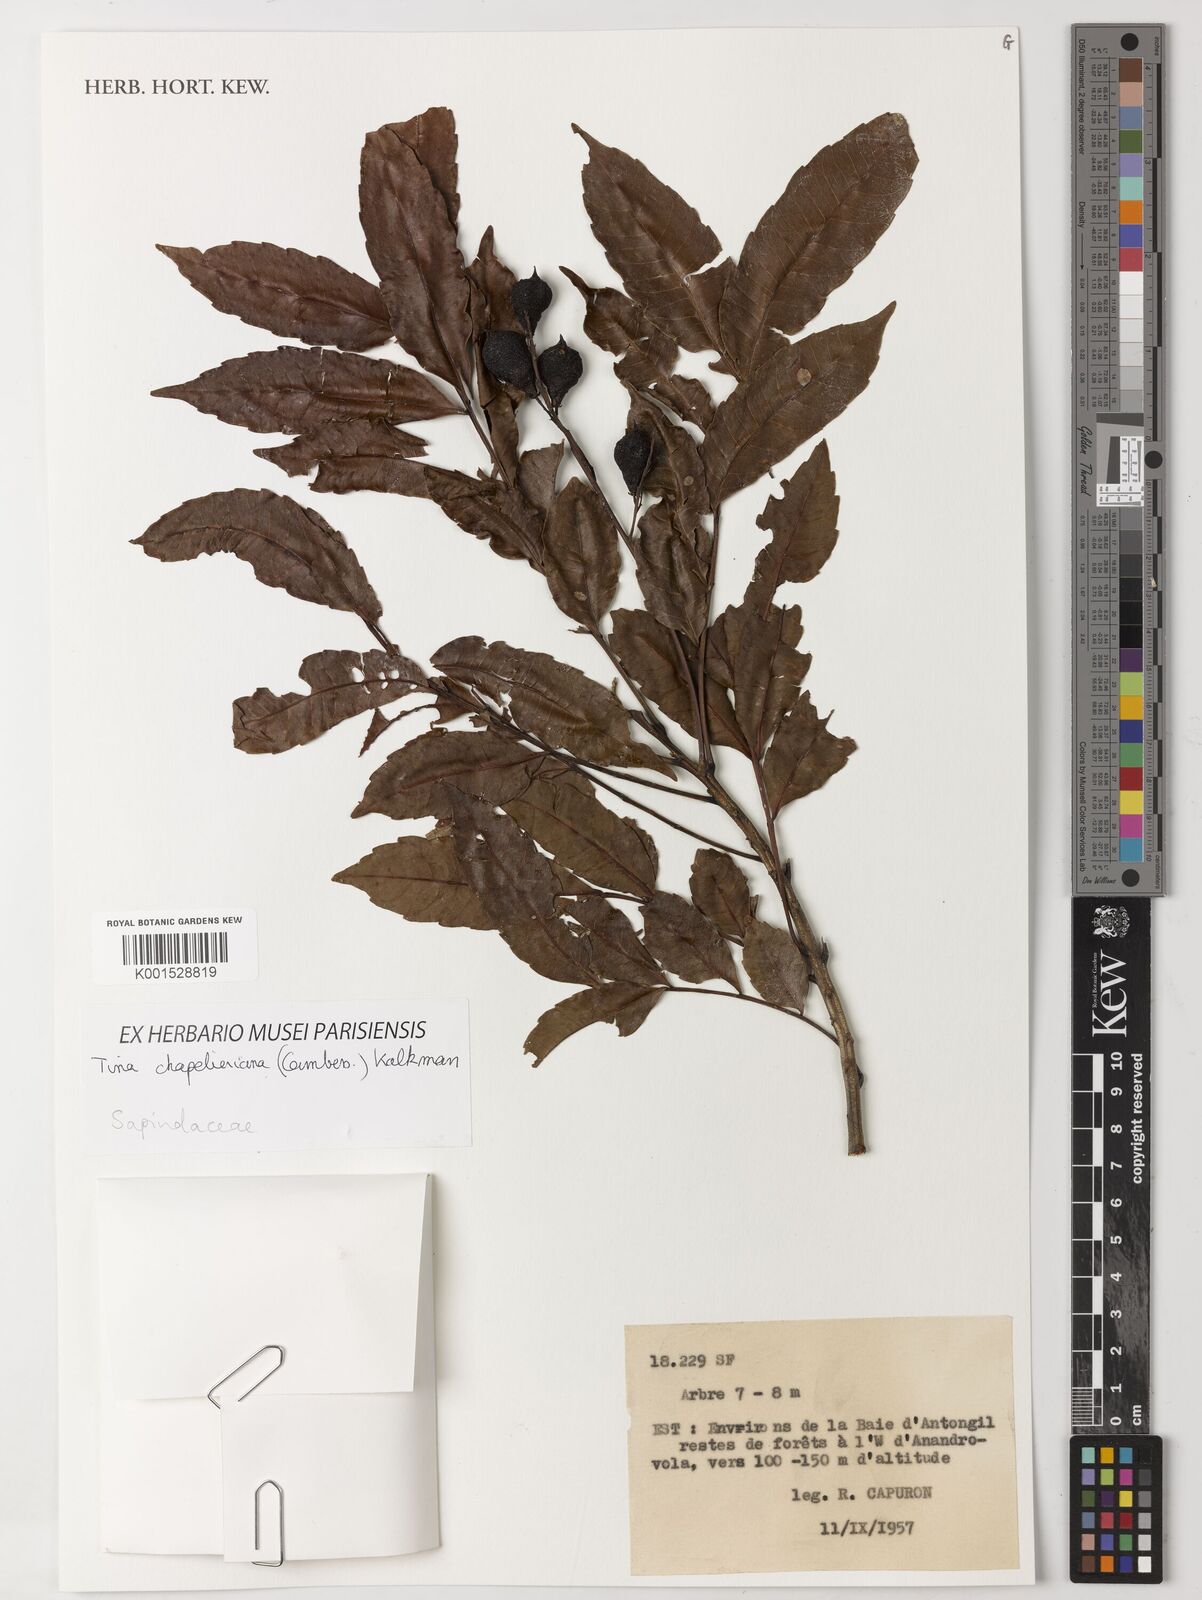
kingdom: Plantae
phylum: Tracheophyta
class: Magnoliopsida
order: Sapindales
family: Sapindaceae
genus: Tina
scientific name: Tina chapelieriana
